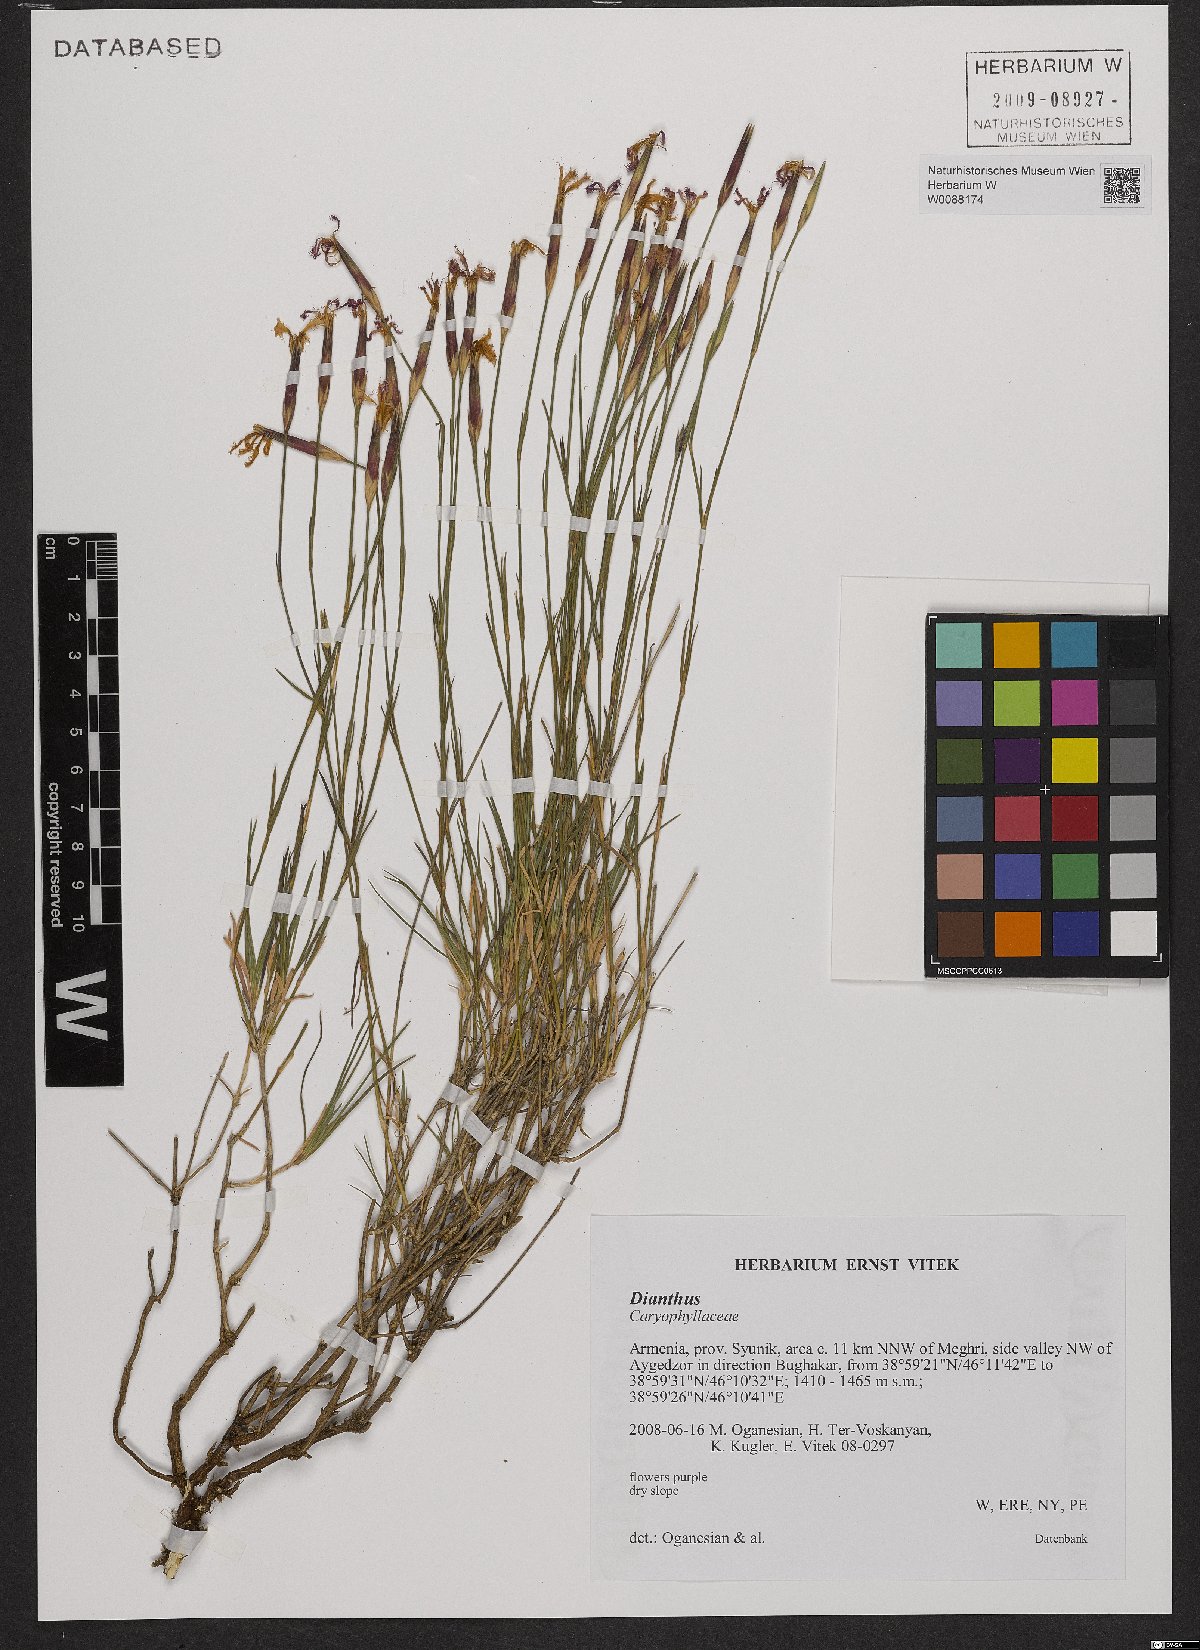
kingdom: Plantae
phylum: Tracheophyta
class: Magnoliopsida
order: Caryophyllales
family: Caryophyllaceae
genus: Dianthus
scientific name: Dianthus
